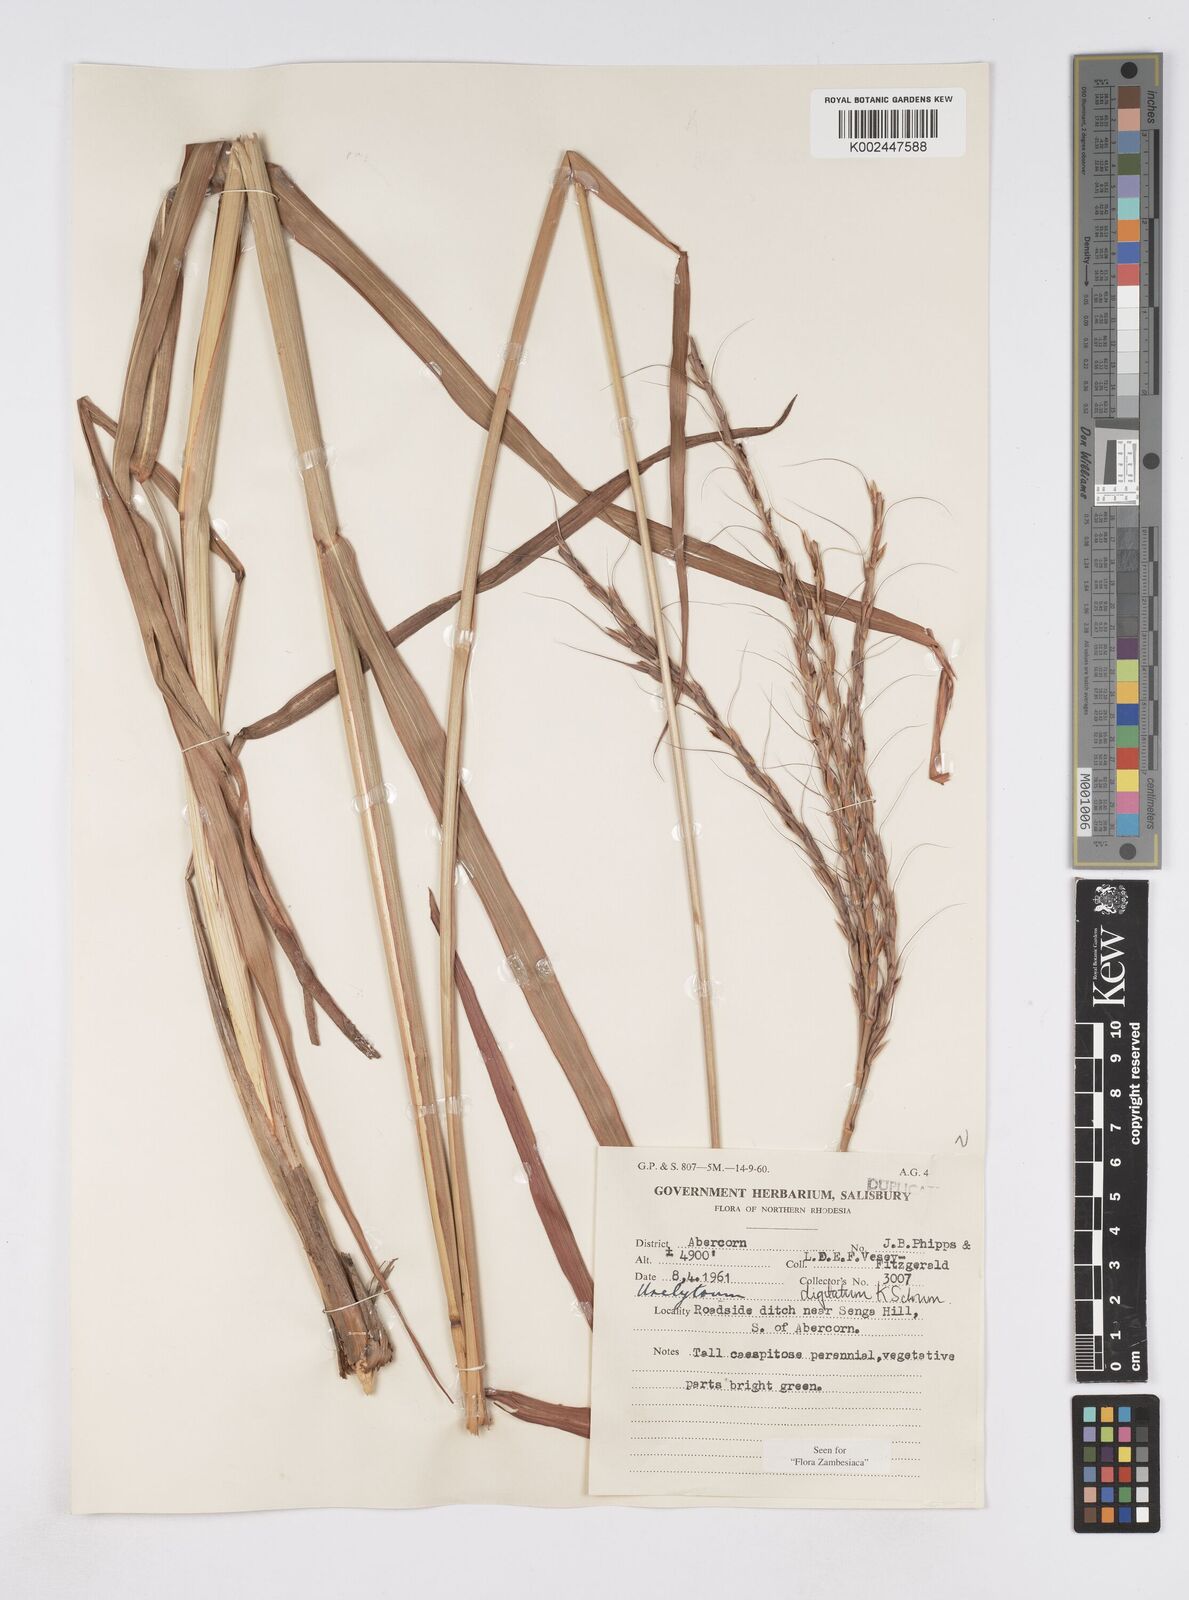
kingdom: Plantae
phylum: Tracheophyta
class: Liliopsida
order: Poales
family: Poaceae
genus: Urelytrum
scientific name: Urelytrum digitatum
